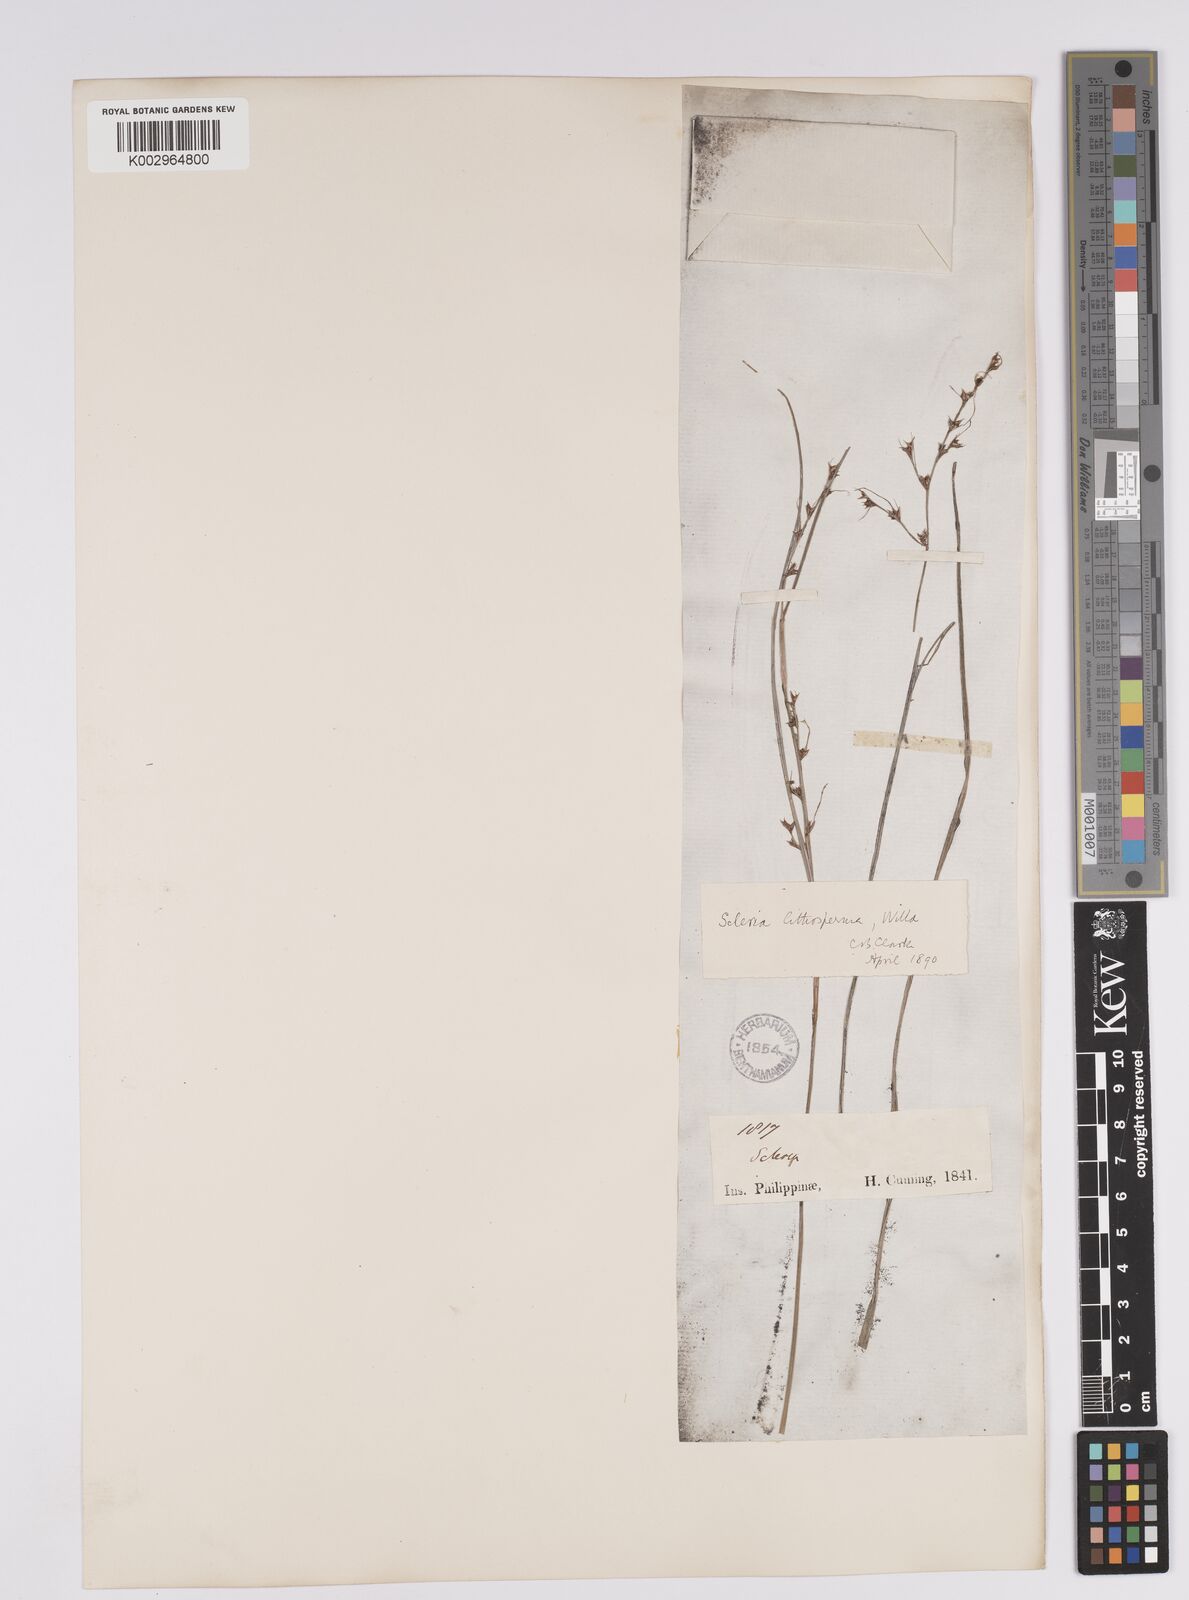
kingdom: Plantae
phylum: Tracheophyta
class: Liliopsida
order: Poales
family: Cyperaceae
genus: Scleria
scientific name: Scleria lithosperma
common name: Florida keys nut-rush
